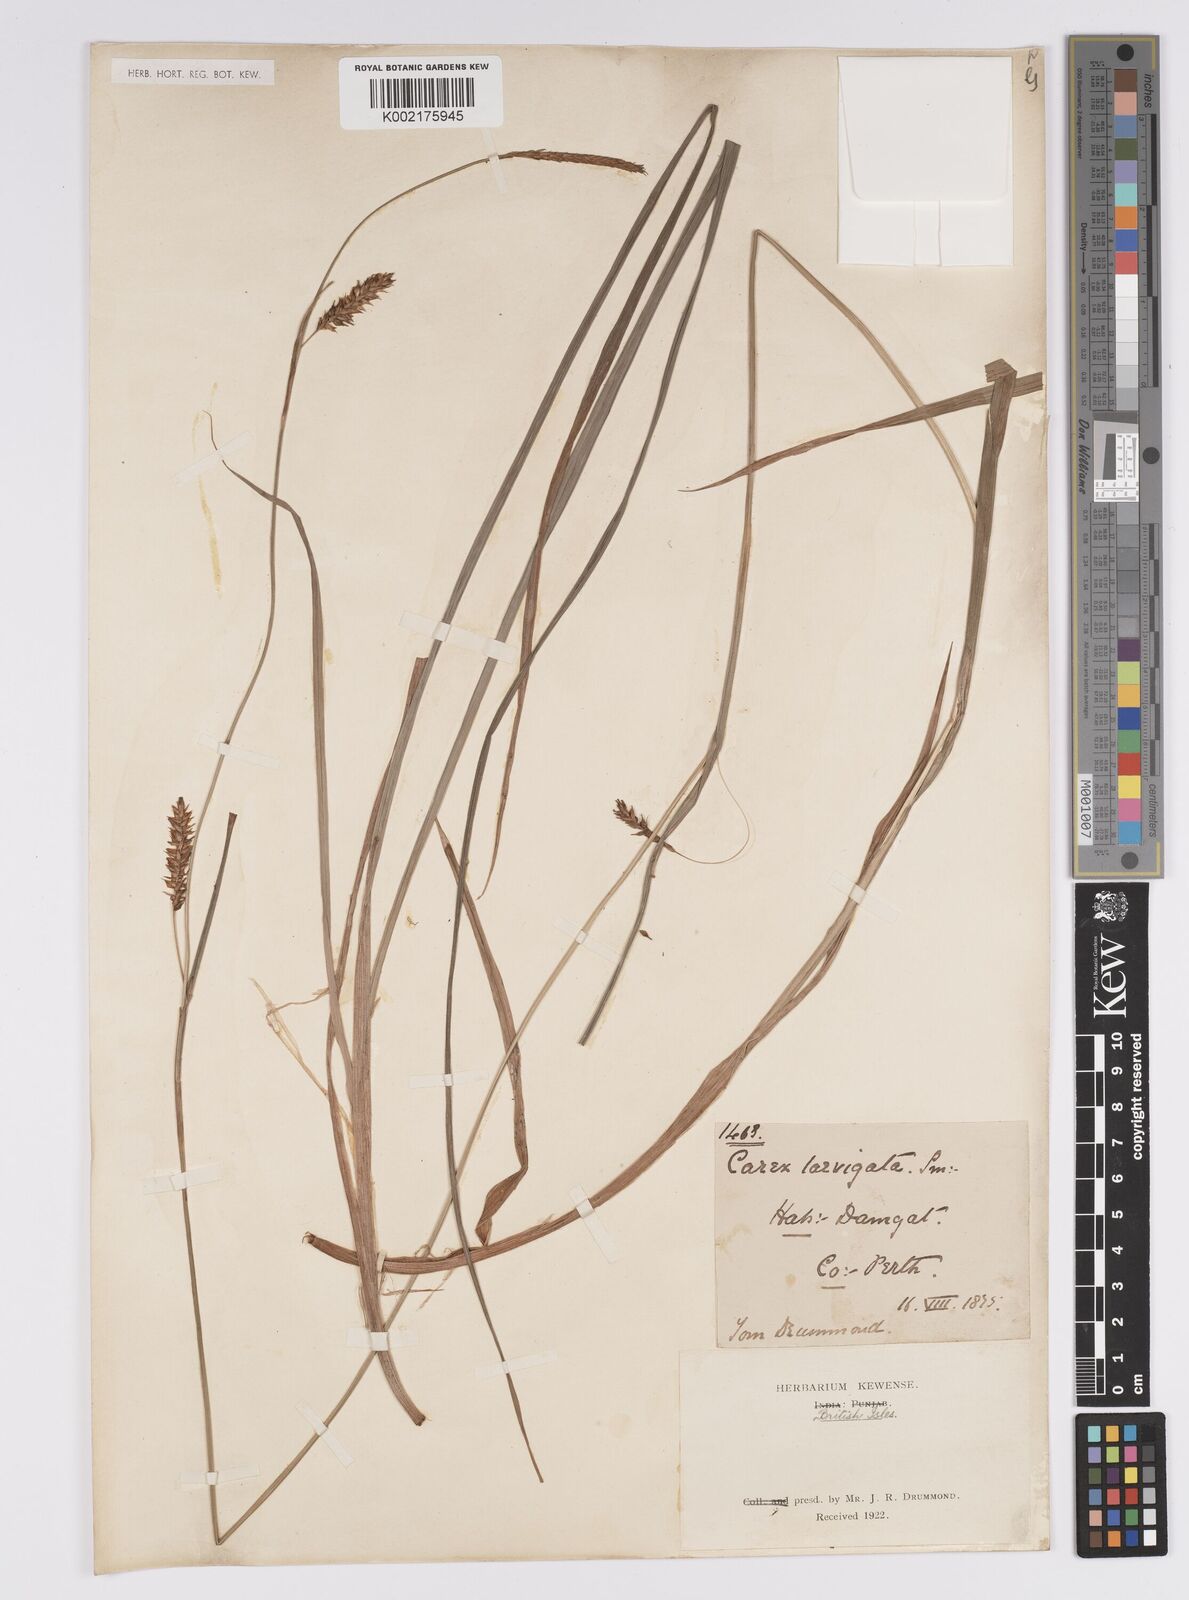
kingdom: Plantae
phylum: Tracheophyta
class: Liliopsida
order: Poales
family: Cyperaceae
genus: Carex
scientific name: Carex laevigata
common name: Smooth-stalked sedge
